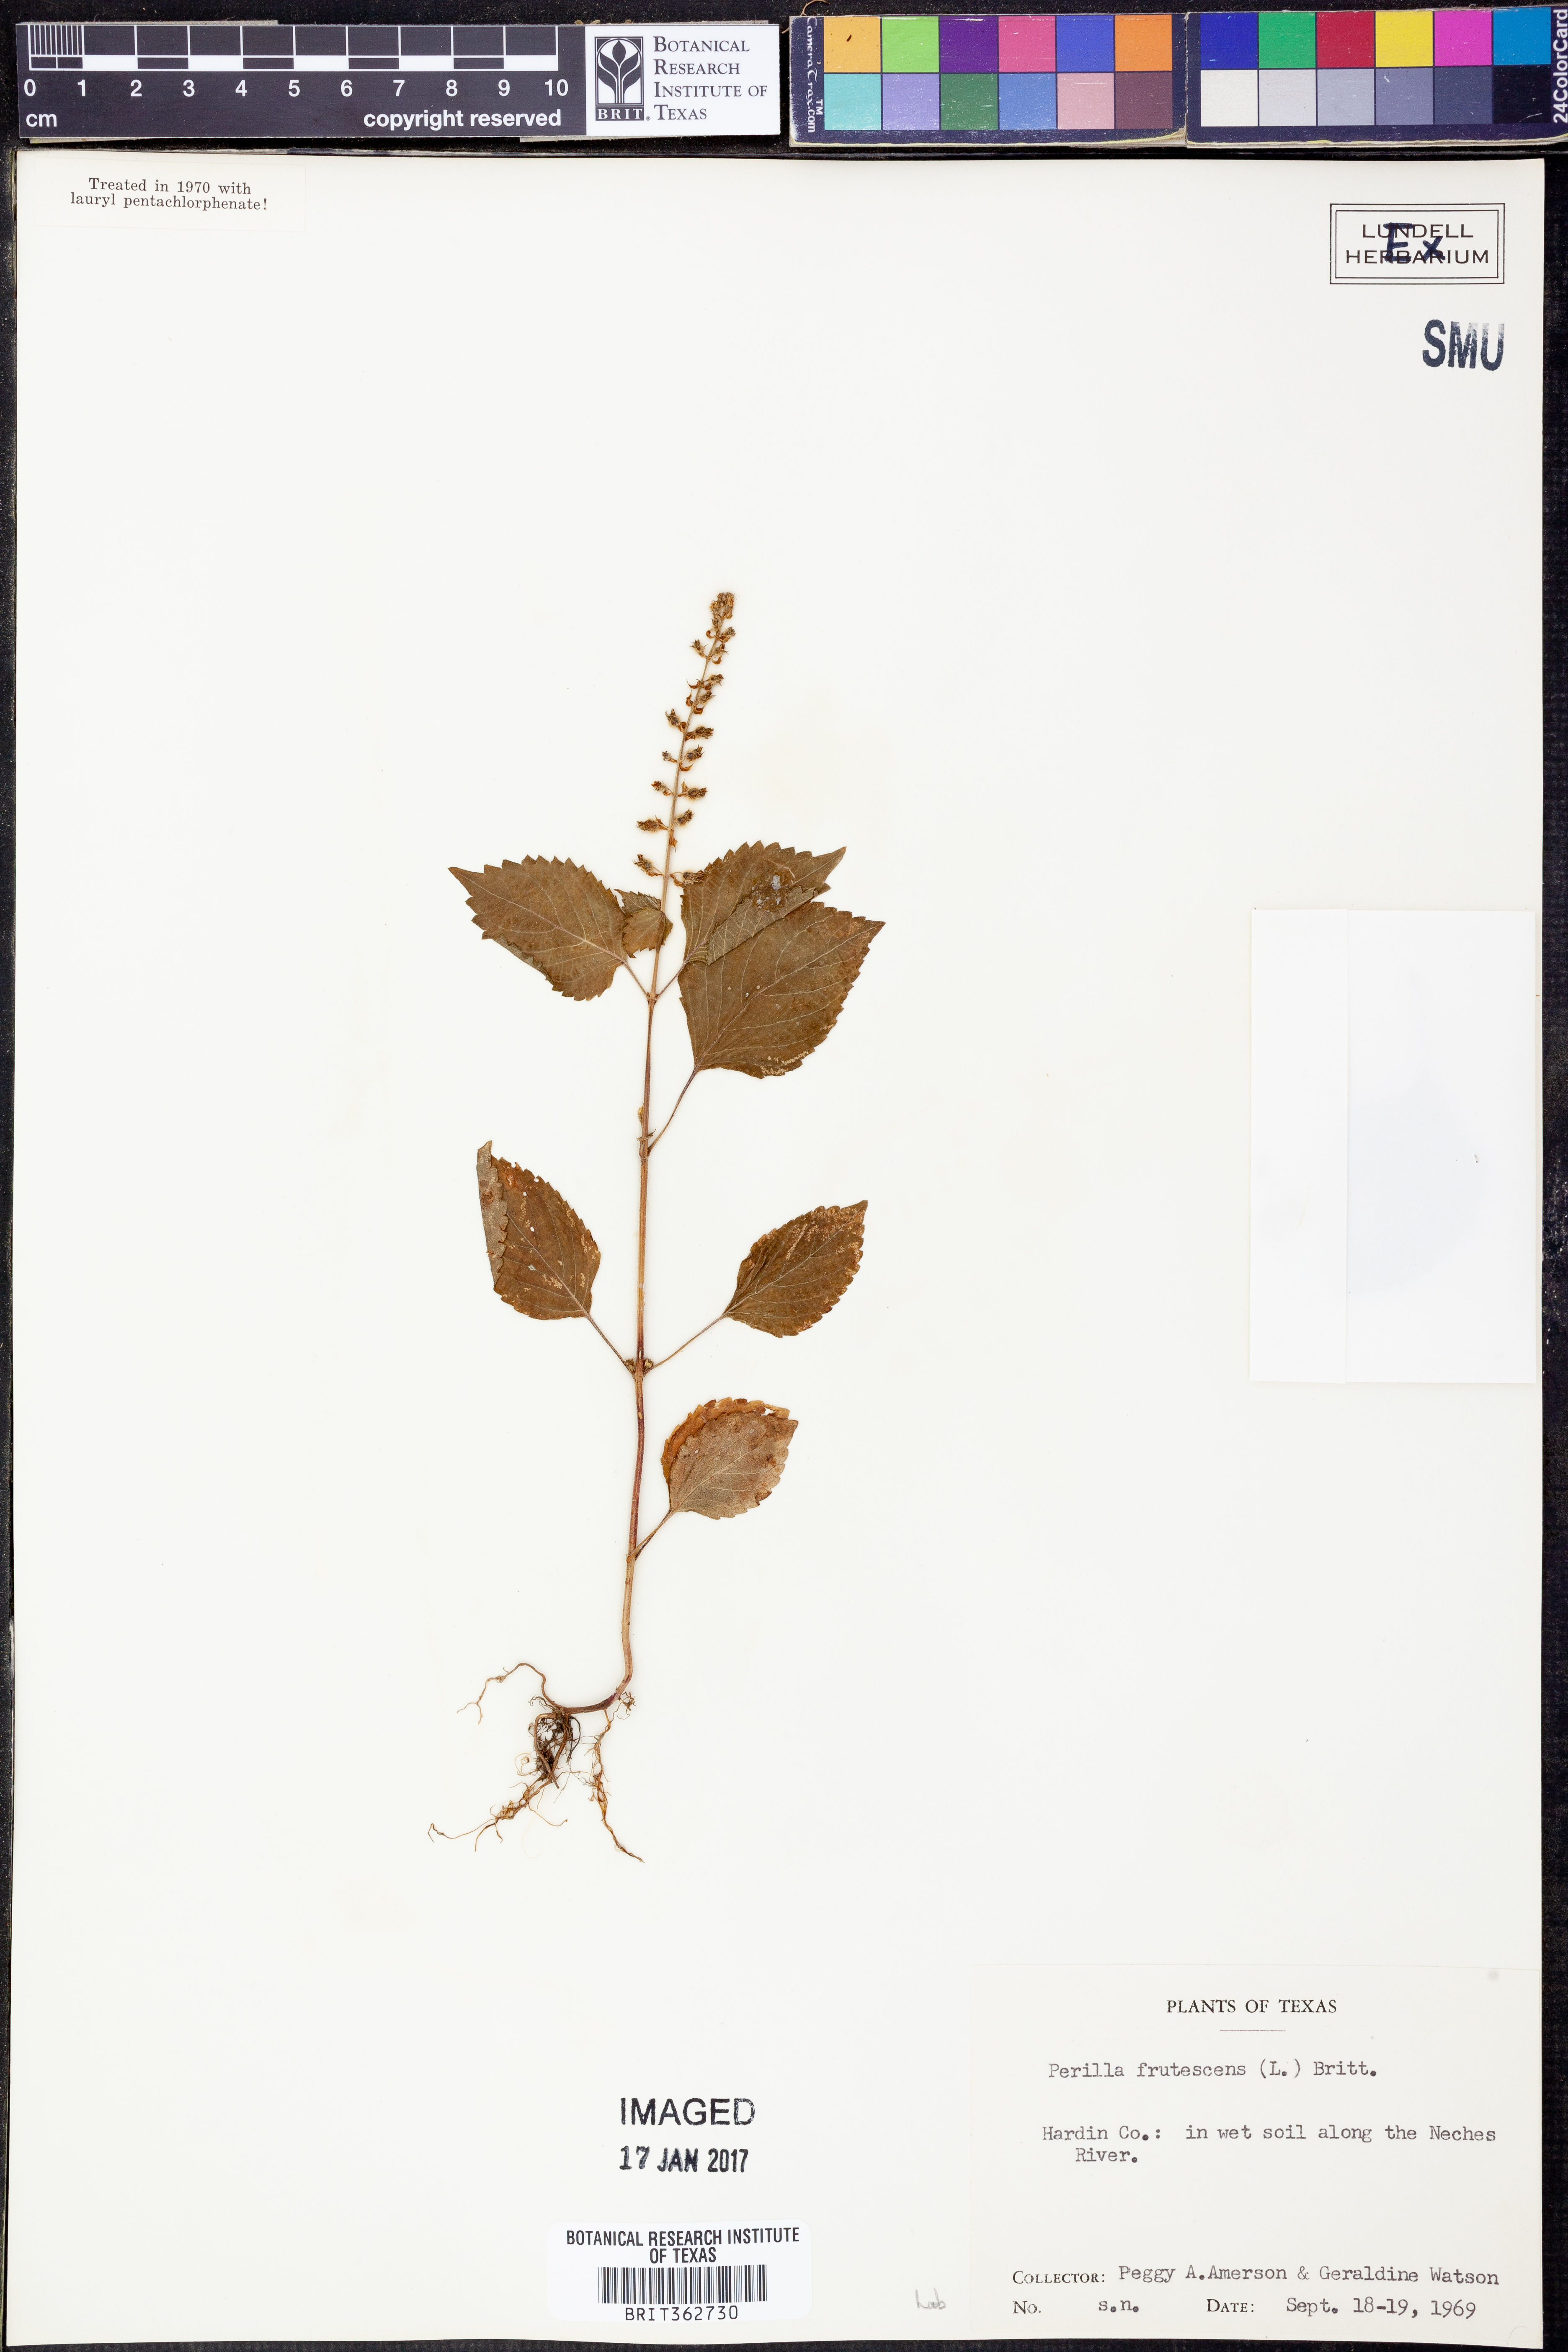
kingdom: Plantae
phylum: Tracheophyta
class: Magnoliopsida
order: Lamiales
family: Lamiaceae
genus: Perilla
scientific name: Perilla frutescens
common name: Perilla
